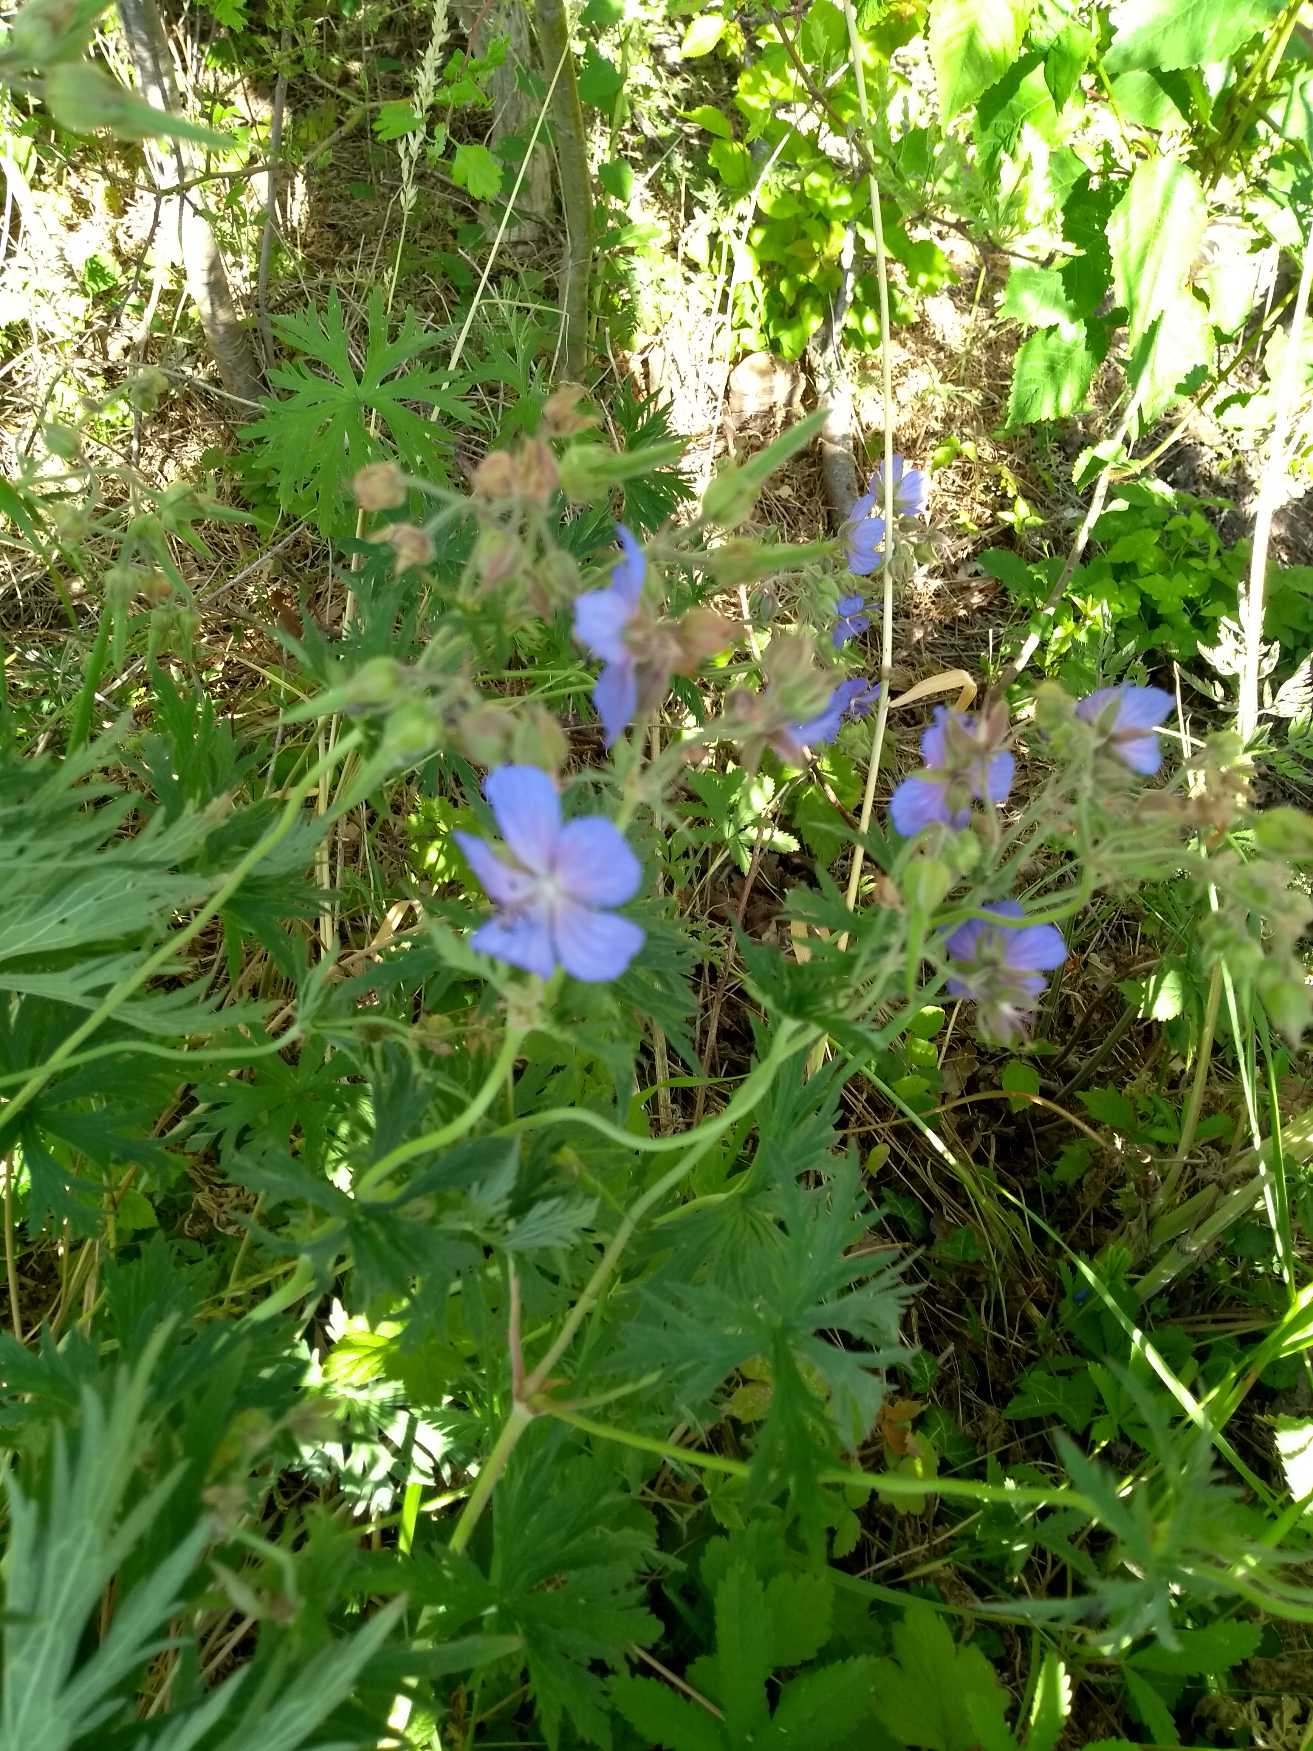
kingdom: Plantae
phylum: Tracheophyta
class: Magnoliopsida
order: Geraniales
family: Geraniaceae
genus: Geranium
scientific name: Geranium pratense
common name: Eng-storkenæb
